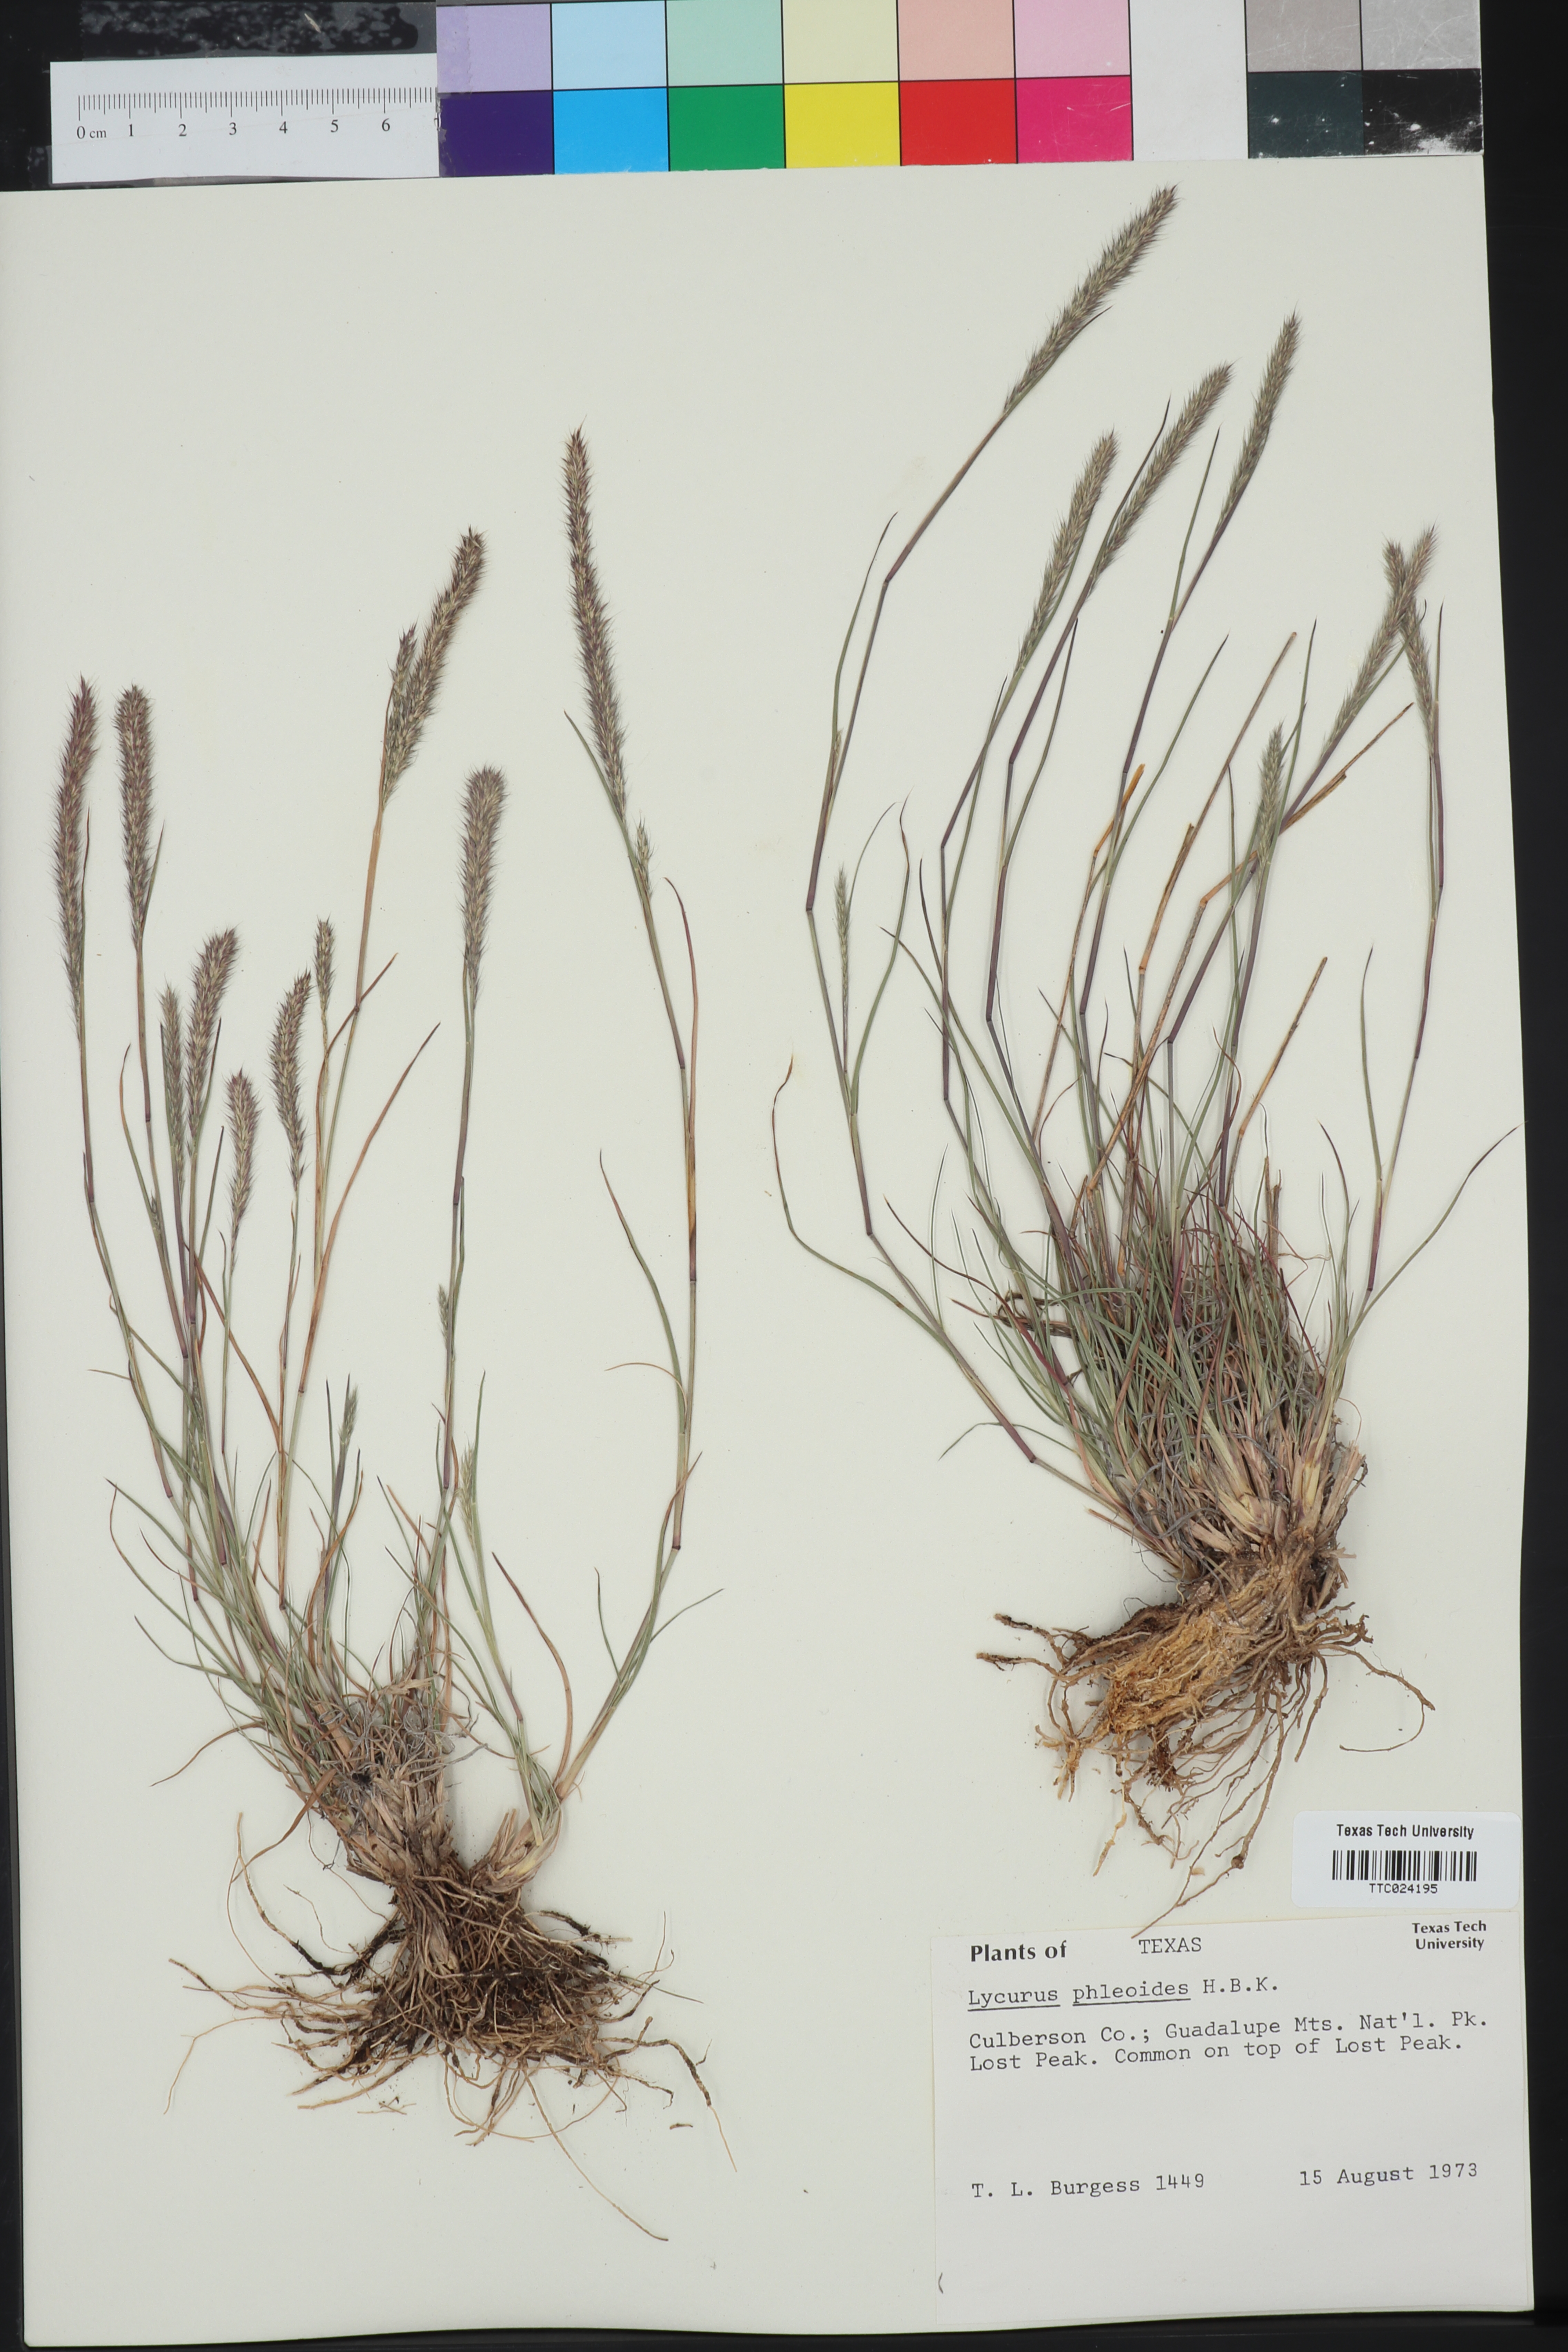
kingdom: Plantae
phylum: Tracheophyta
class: Liliopsida
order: Poales
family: Poaceae
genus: Muhlenbergia
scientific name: Muhlenbergia phleoides
